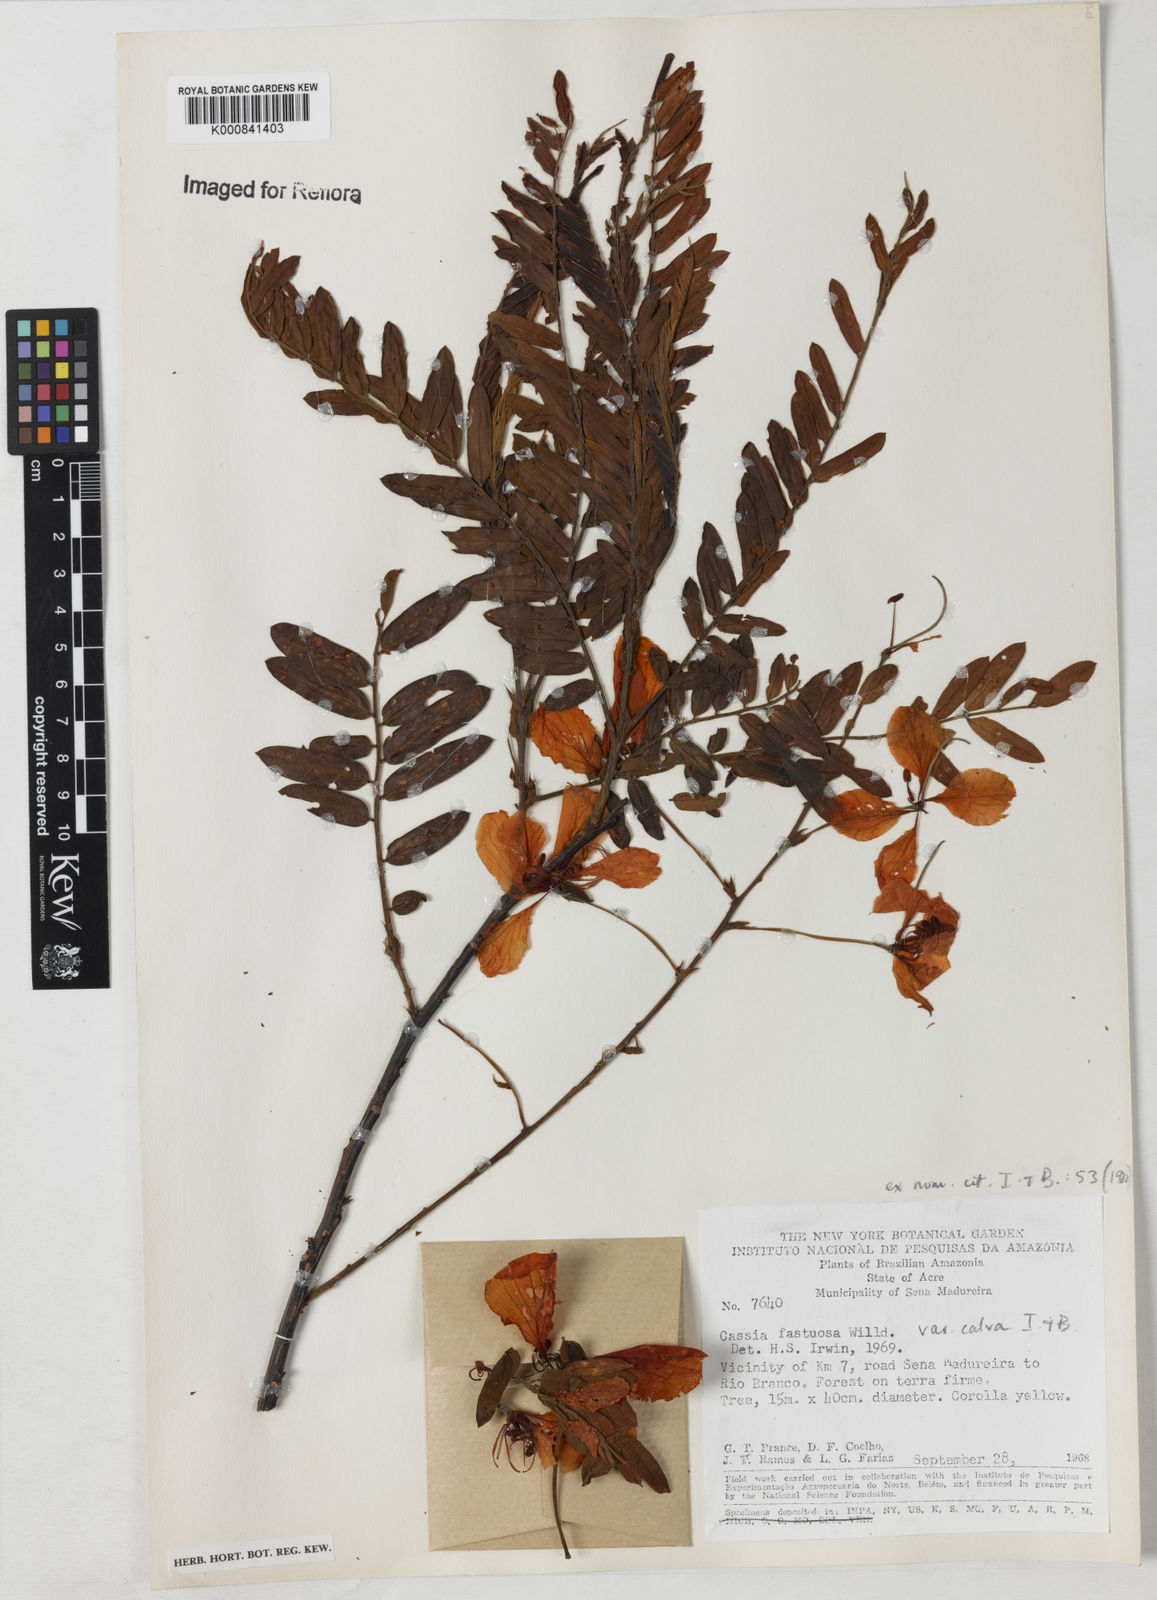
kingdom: Plantae
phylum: Tracheophyta
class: Magnoliopsida
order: Fabales
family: Fabaceae
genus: Cassia
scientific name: Cassia fastuosa
